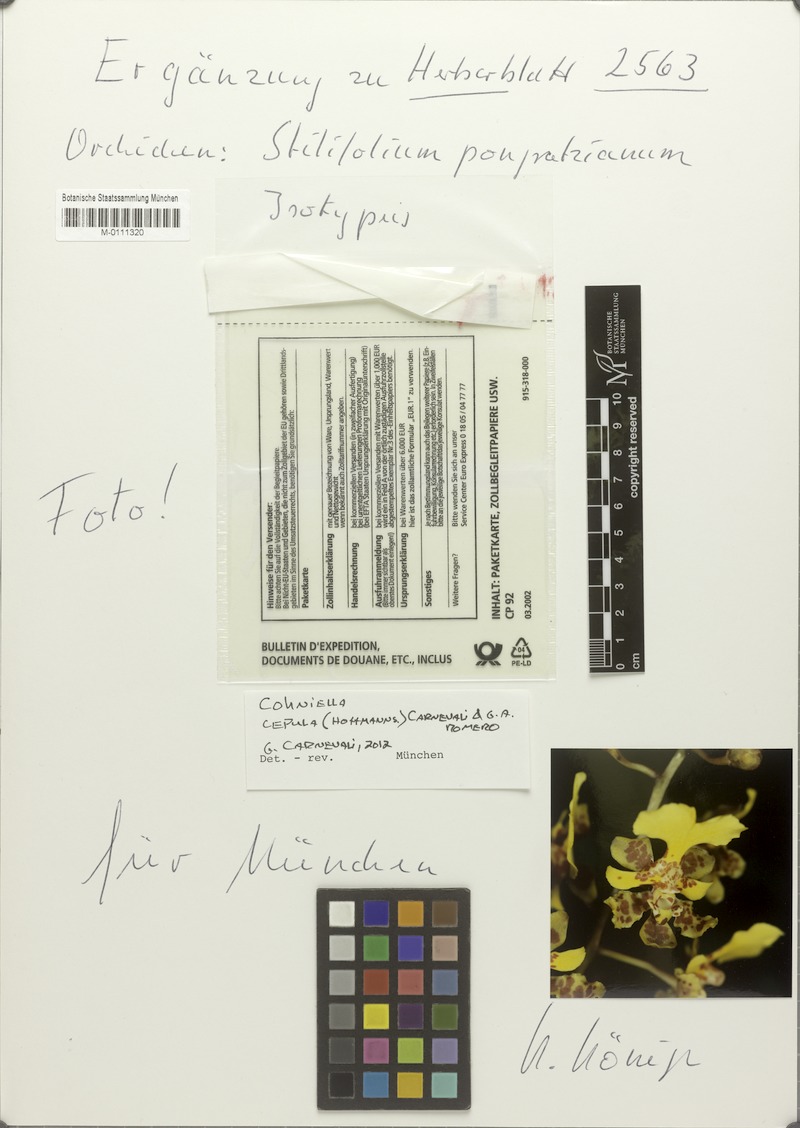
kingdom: Plantae
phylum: Tracheophyta
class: Liliopsida
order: Asparagales
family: Orchidaceae
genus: Trichocentrum
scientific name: Trichocentrum cepula
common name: Rat-tail orchid
